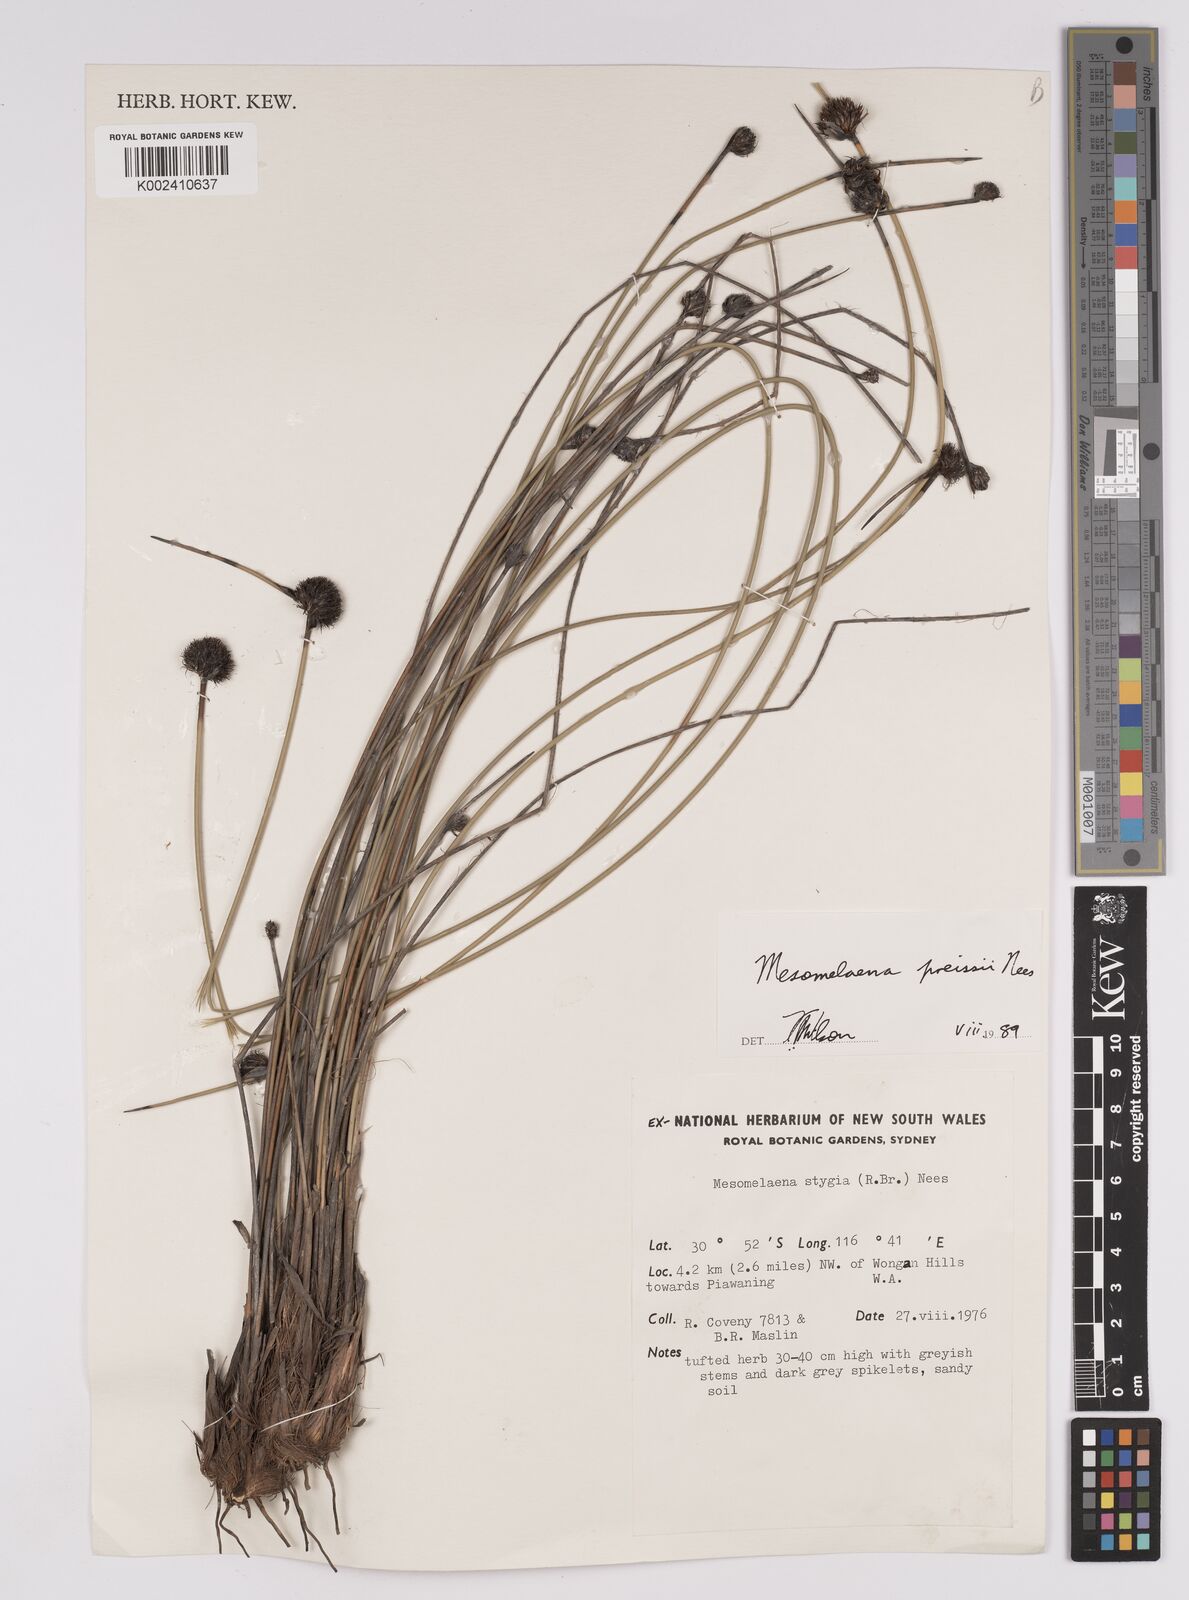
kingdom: Plantae
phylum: Tracheophyta
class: Liliopsida
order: Poales
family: Cyperaceae
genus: Mesomelaena
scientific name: Mesomelaena preissii
